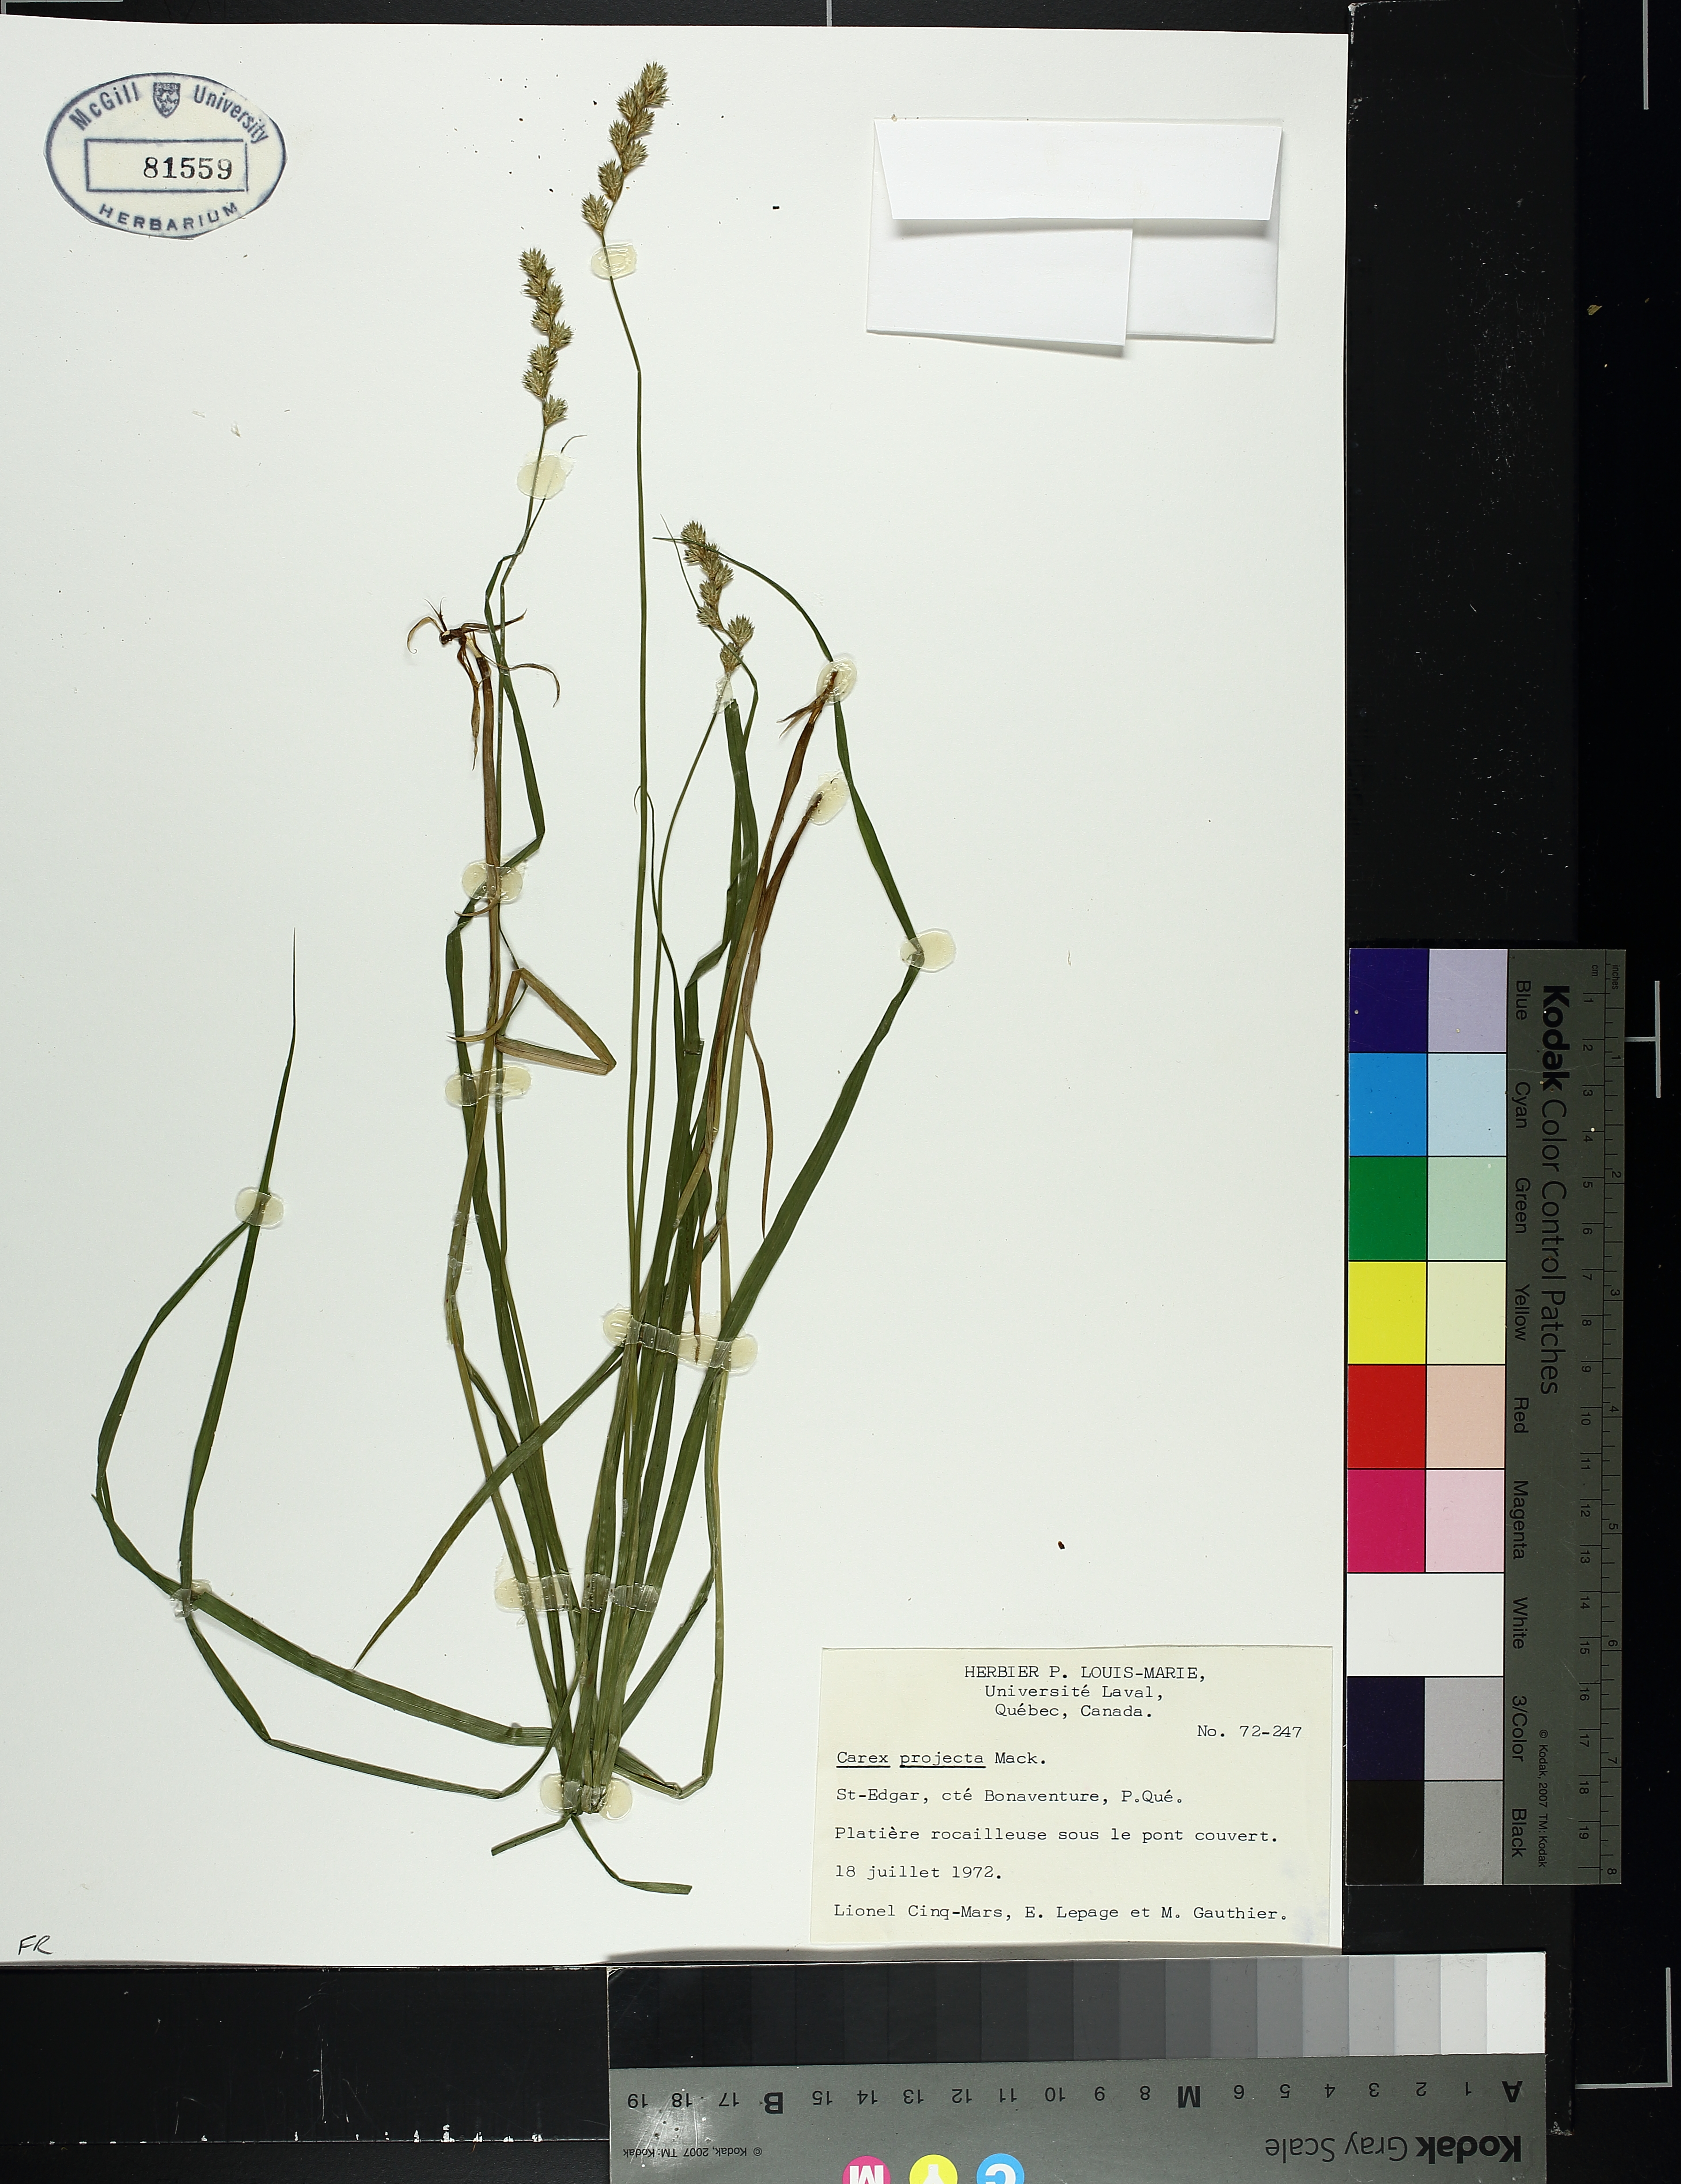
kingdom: Plantae
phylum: Tracheophyta
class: Liliopsida
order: Poales
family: Cyperaceae
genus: Carex
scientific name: Carex projecta
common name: Loose-headed oval sedge
